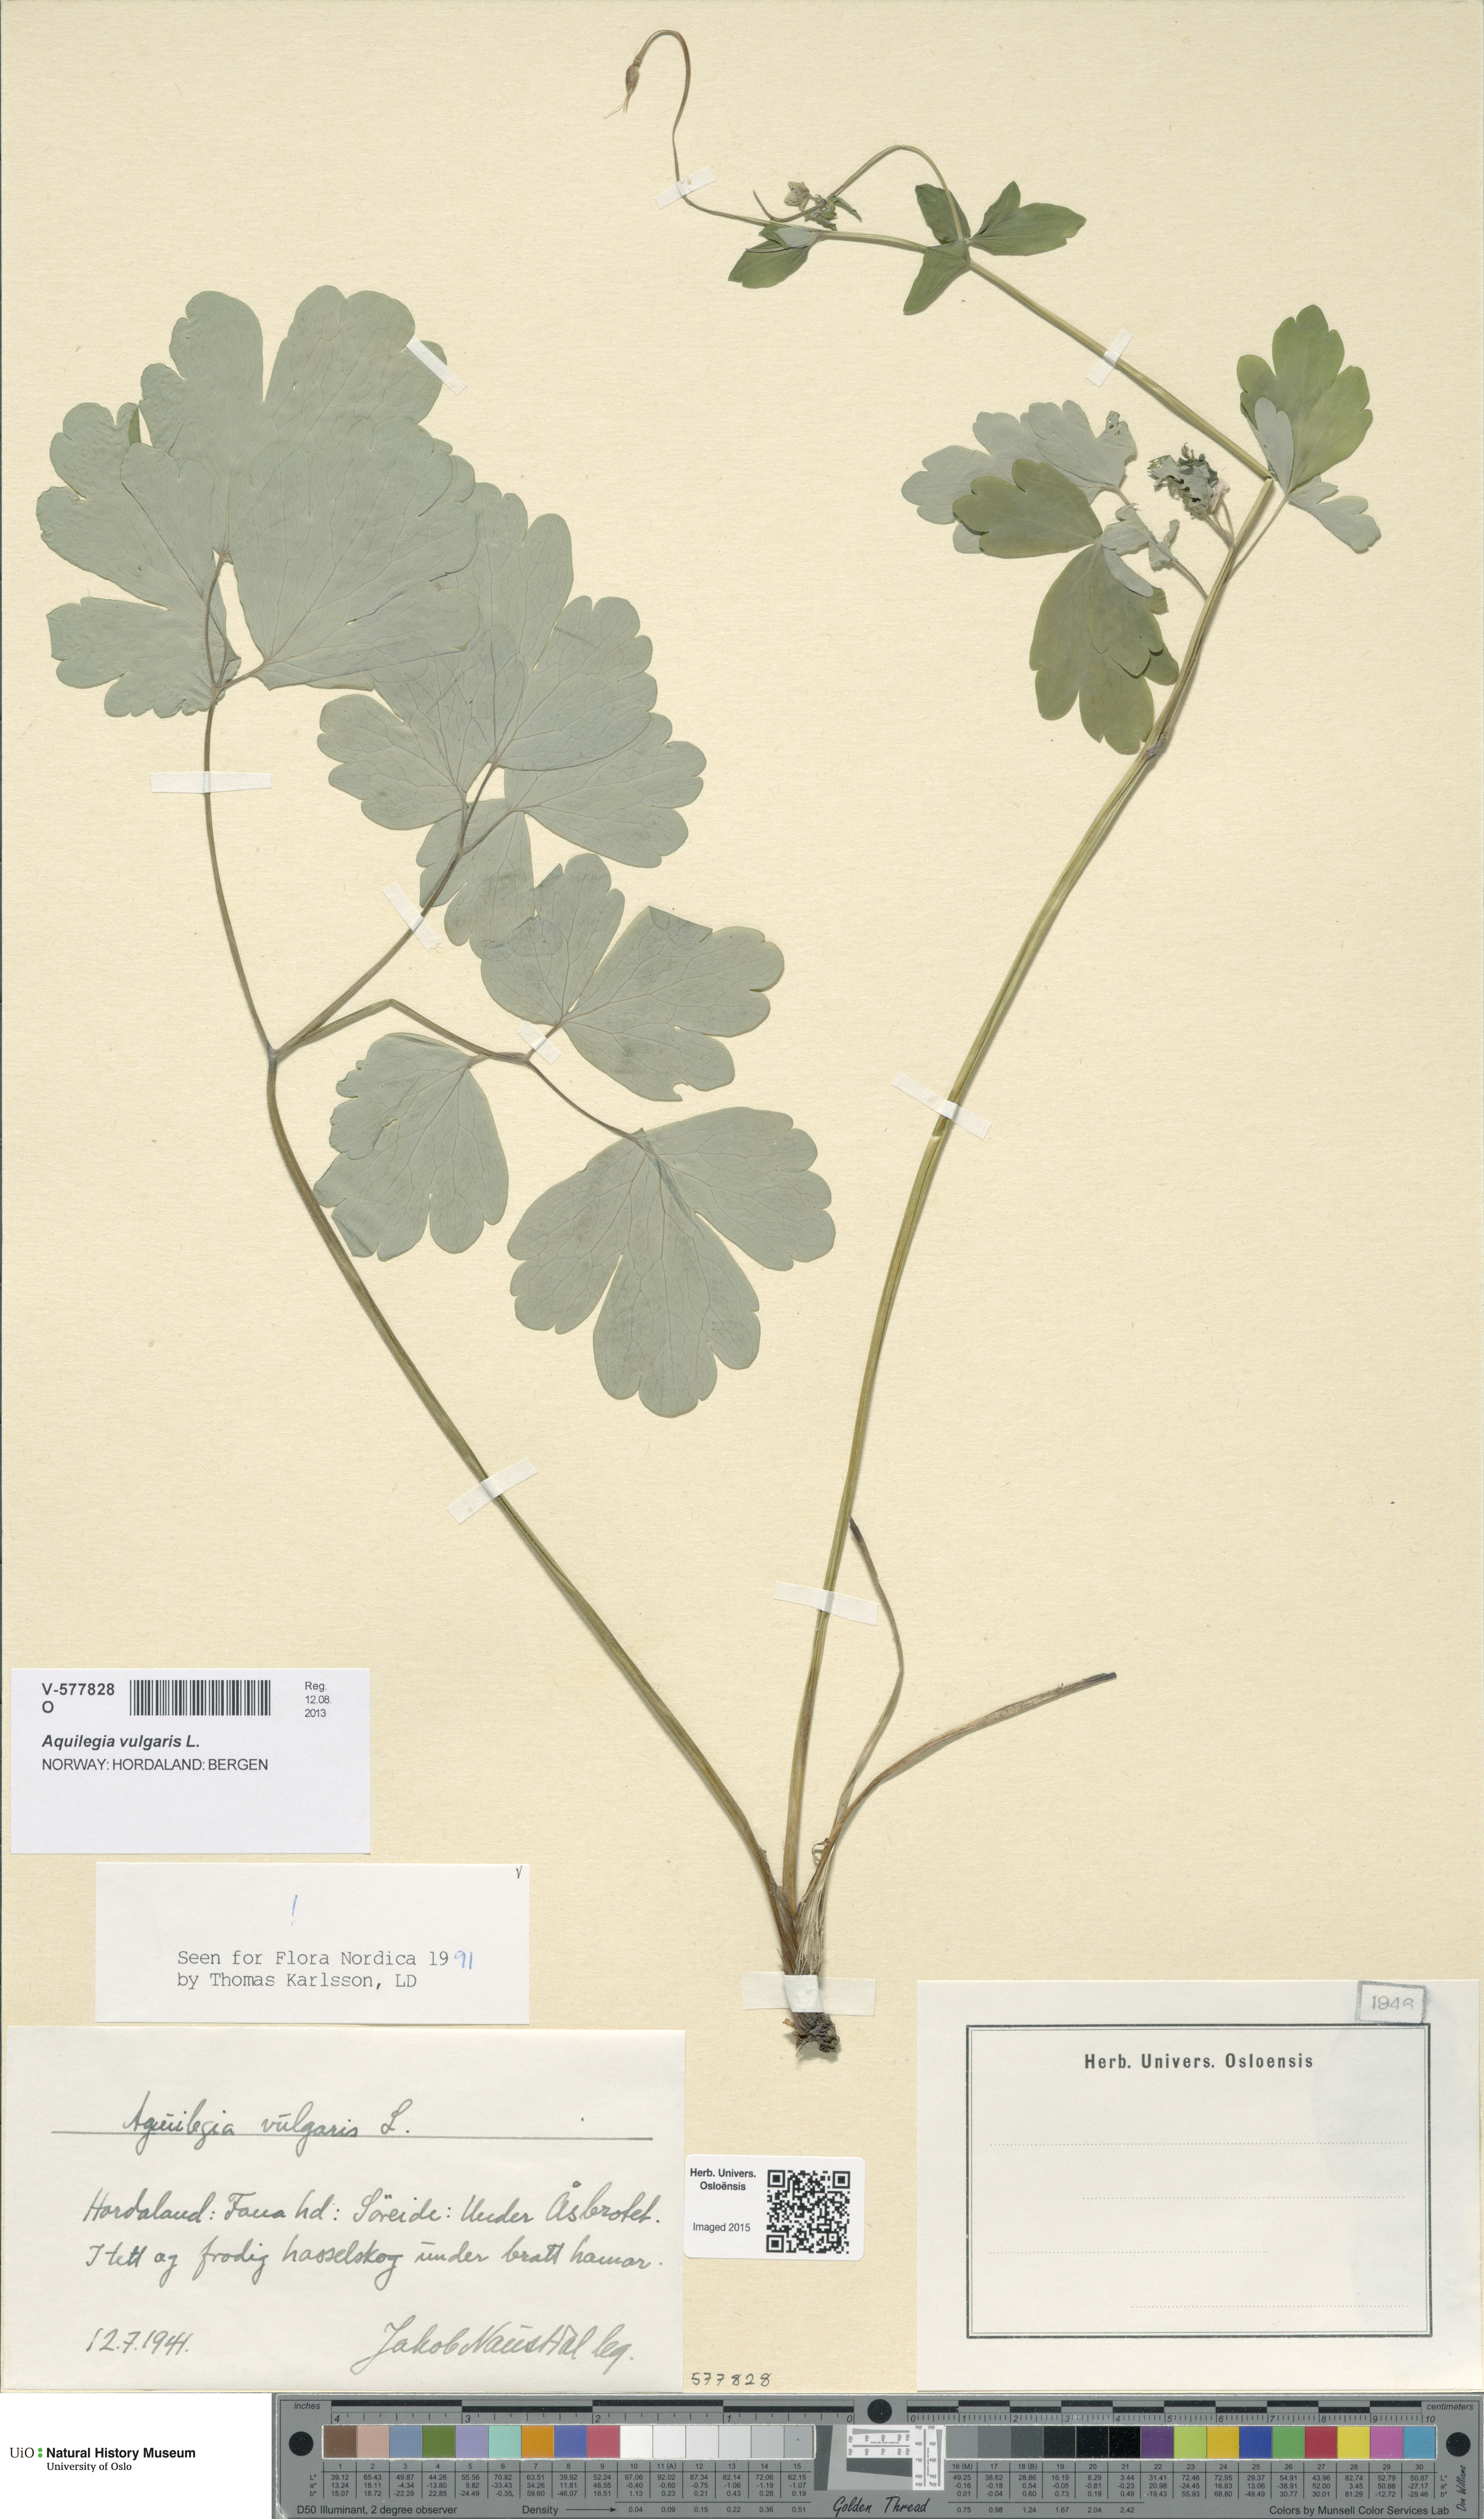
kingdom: Plantae
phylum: Tracheophyta
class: Magnoliopsida
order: Ranunculales
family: Ranunculaceae
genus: Aquilegia
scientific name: Aquilegia vulgaris
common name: Columbine
